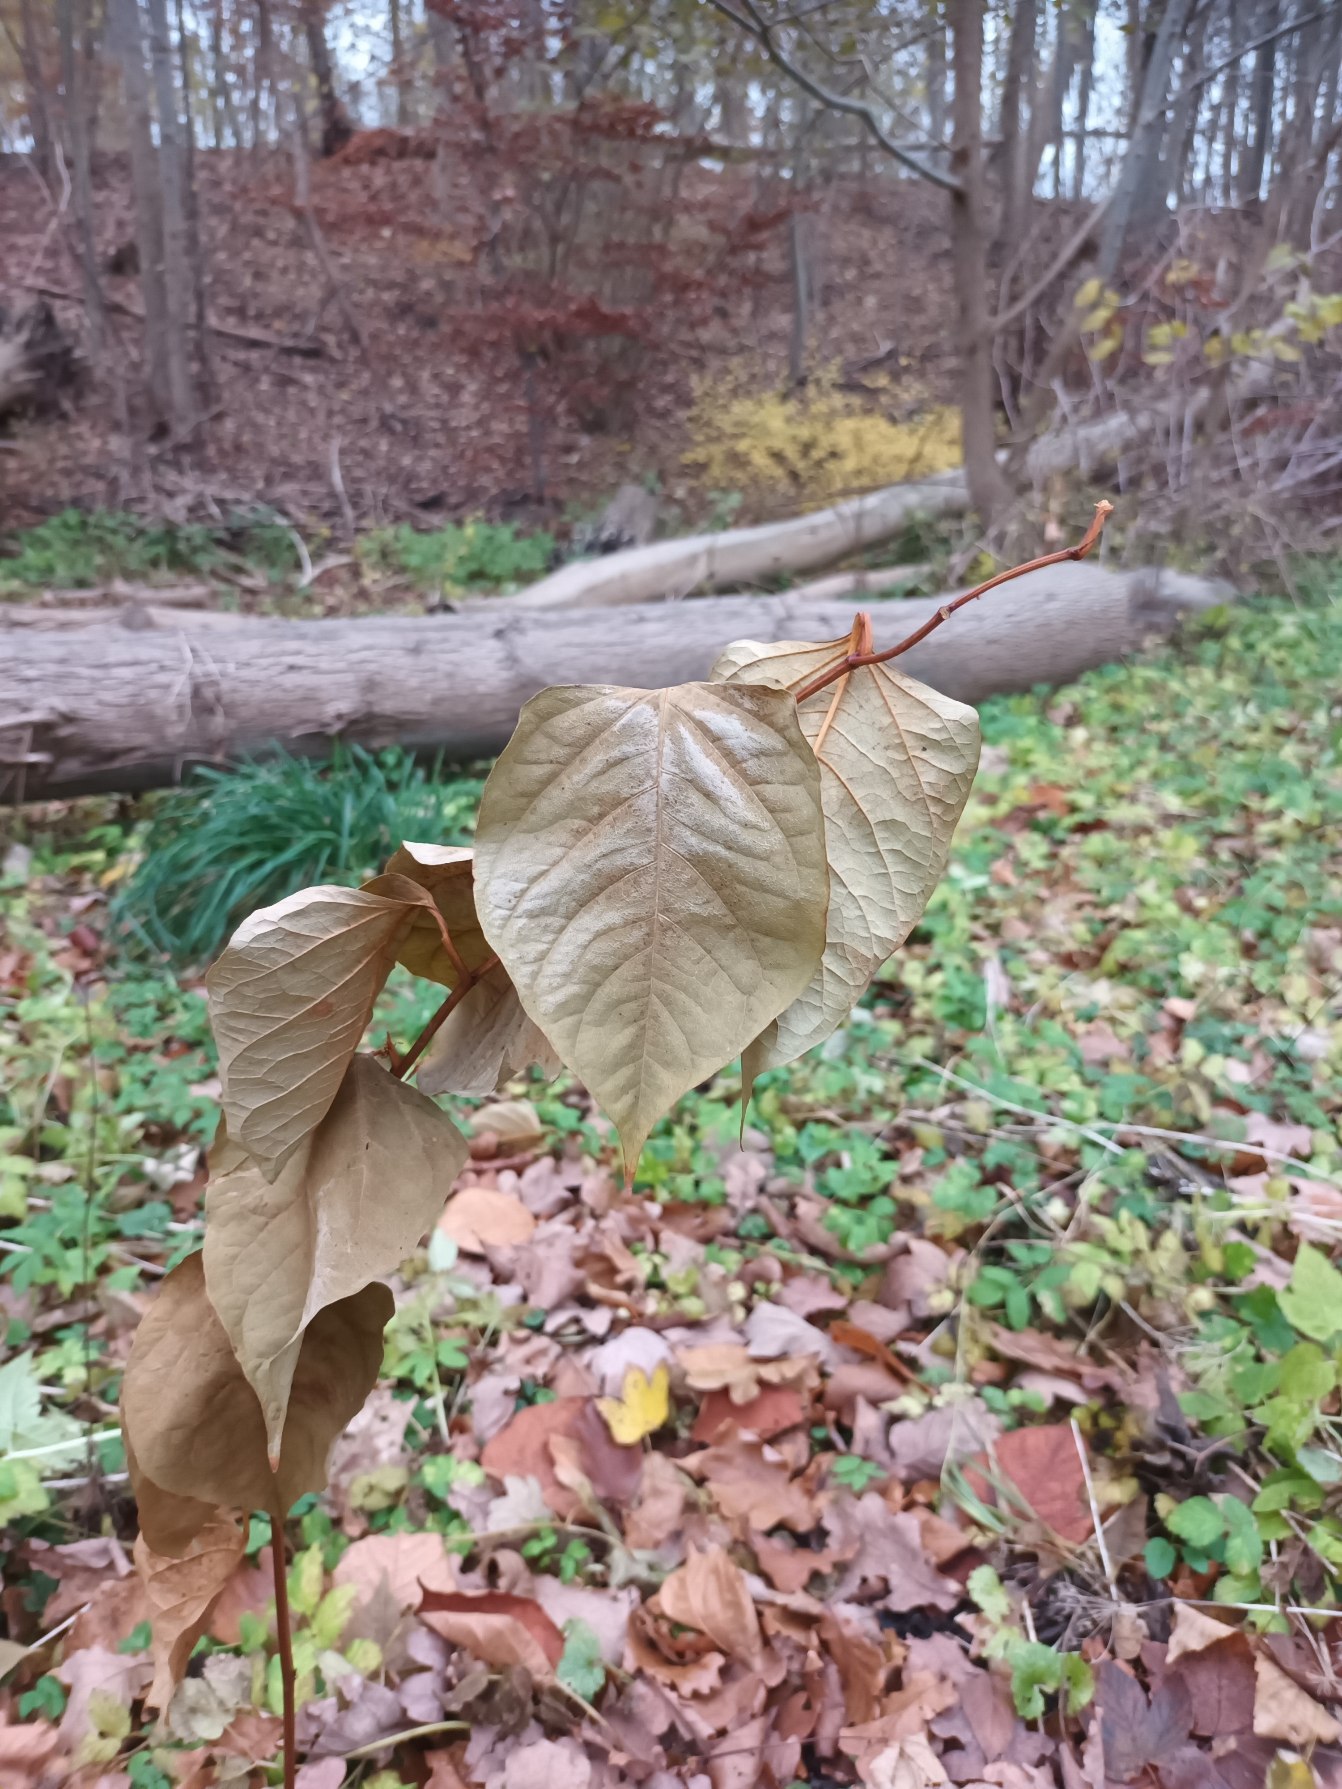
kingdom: Plantae
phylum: Tracheophyta
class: Magnoliopsida
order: Caryophyllales
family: Polygonaceae
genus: Reynoutria
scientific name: Reynoutria japonica
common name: Japan-pileurt
